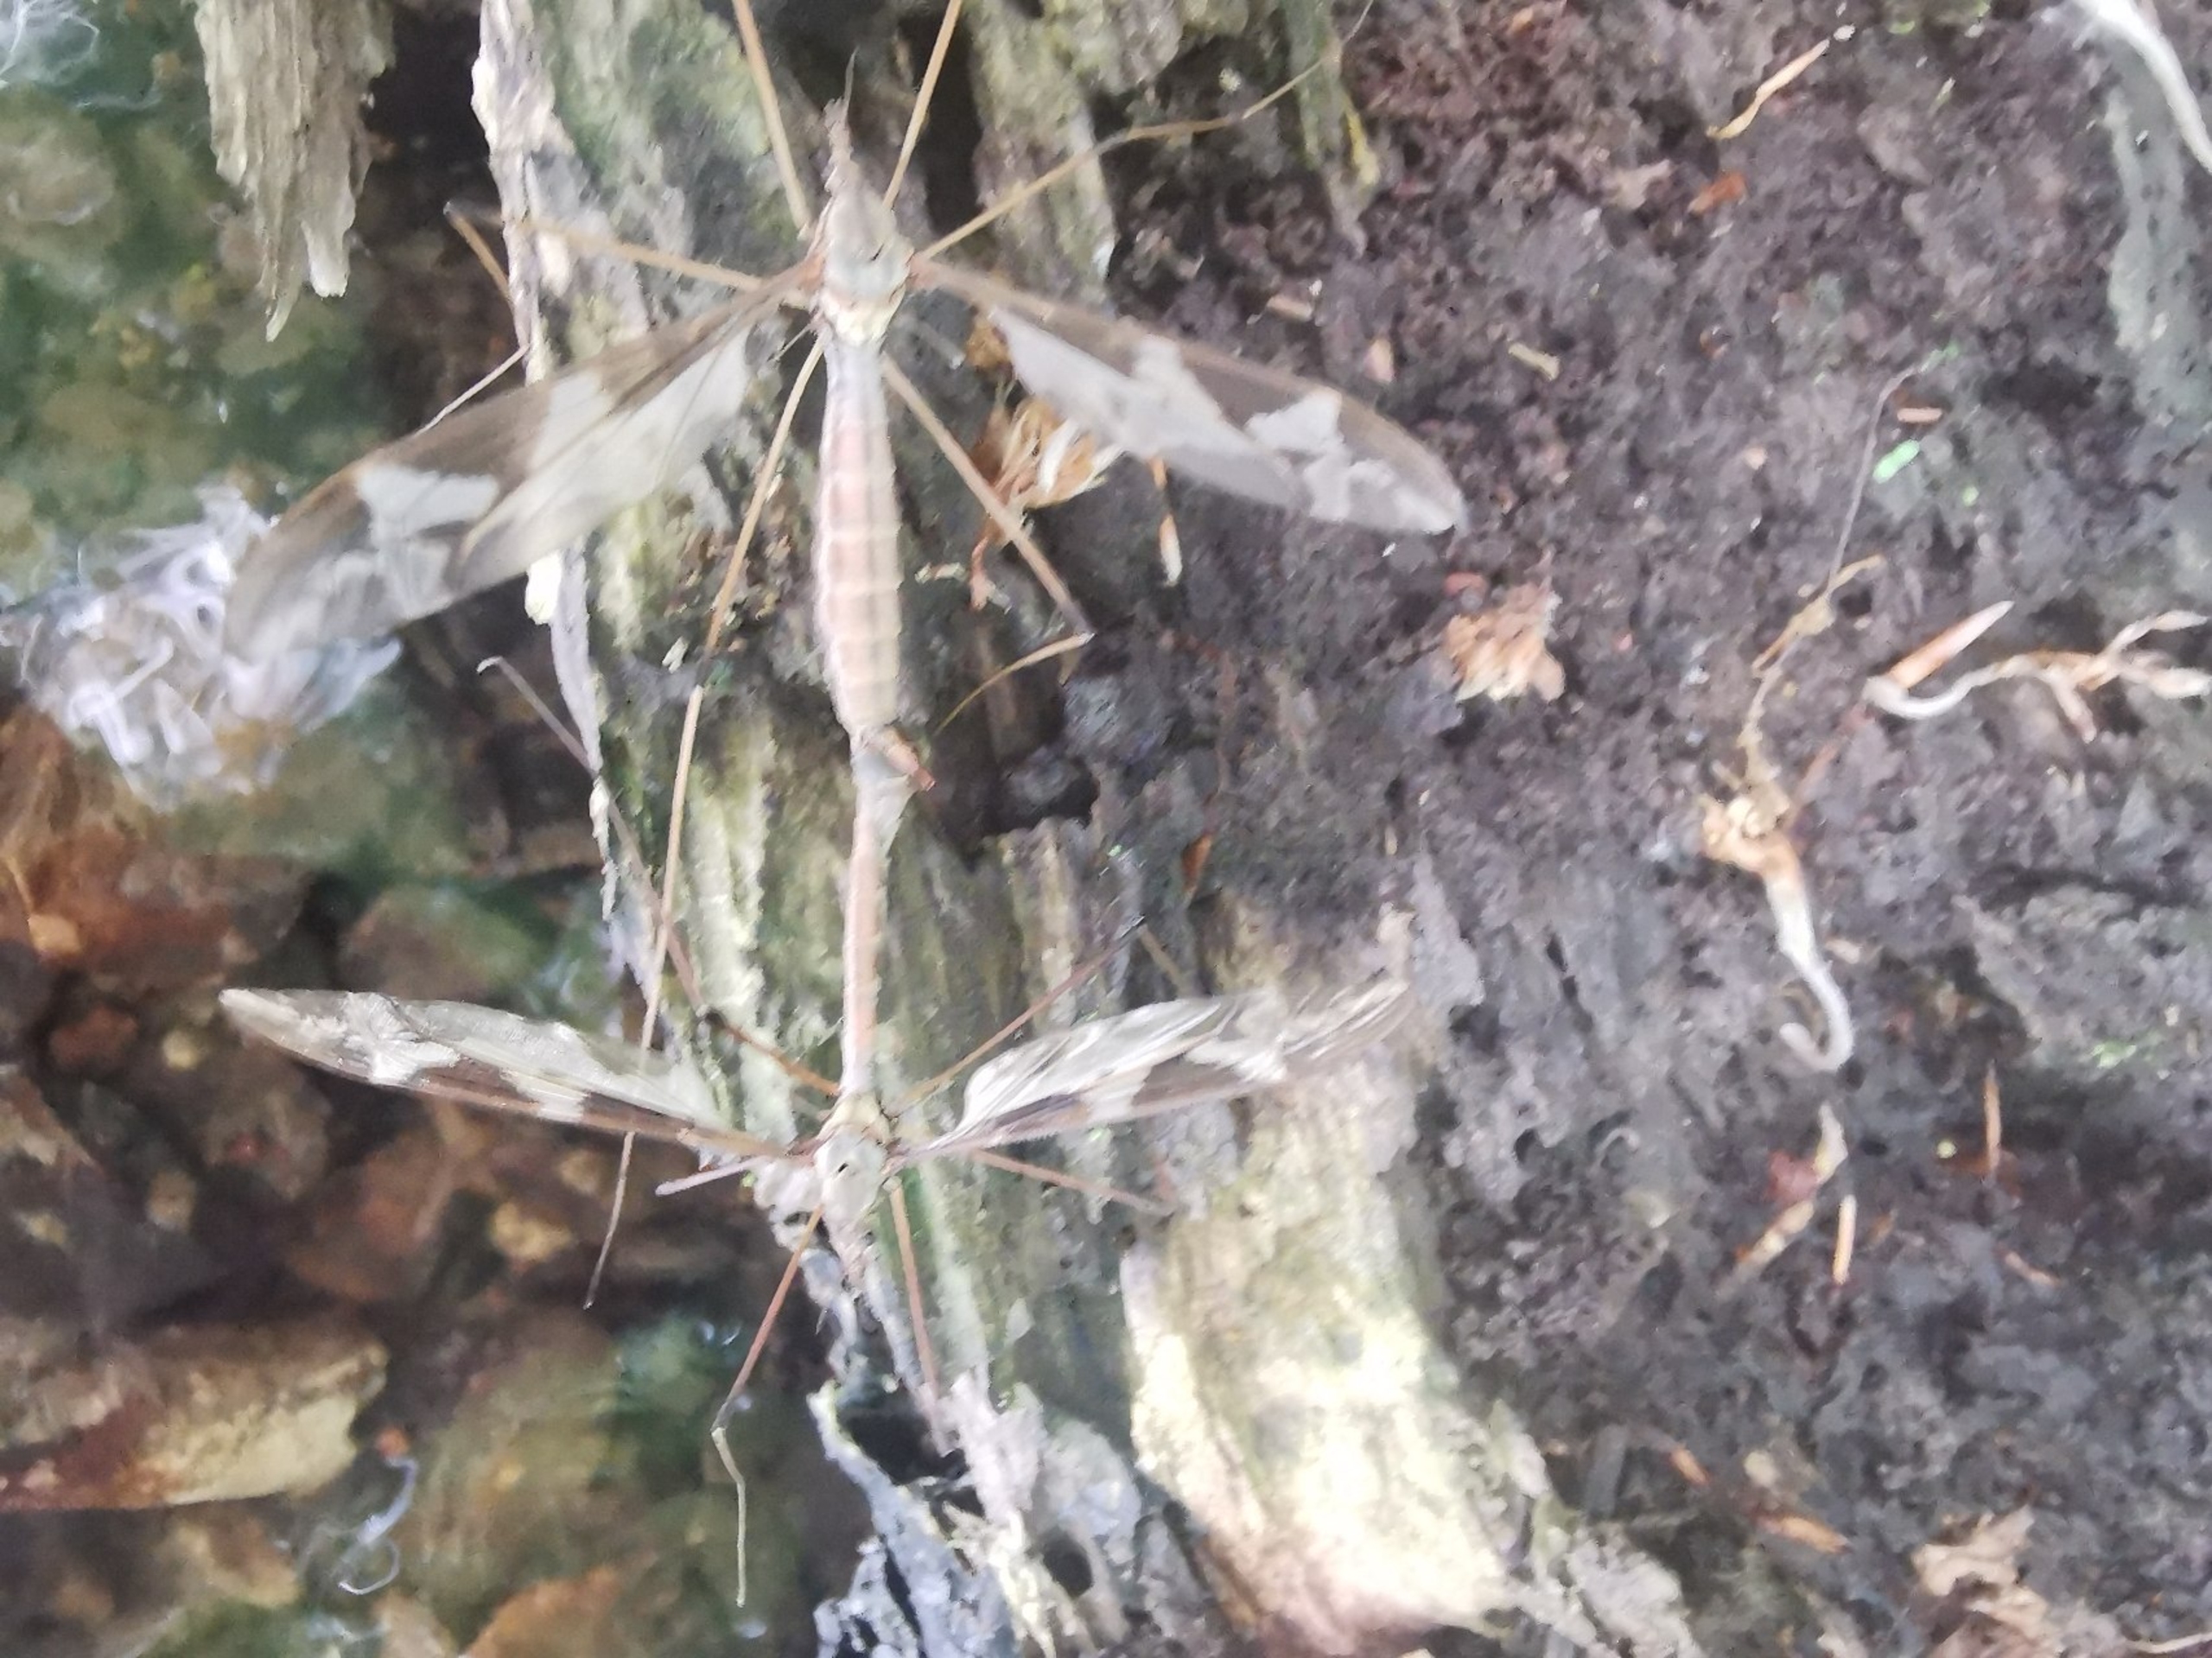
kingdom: Animalia
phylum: Arthropoda
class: Insecta
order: Diptera
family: Tipulidae
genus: Tipula
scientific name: Tipula maxima
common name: Kæmpestankelben
